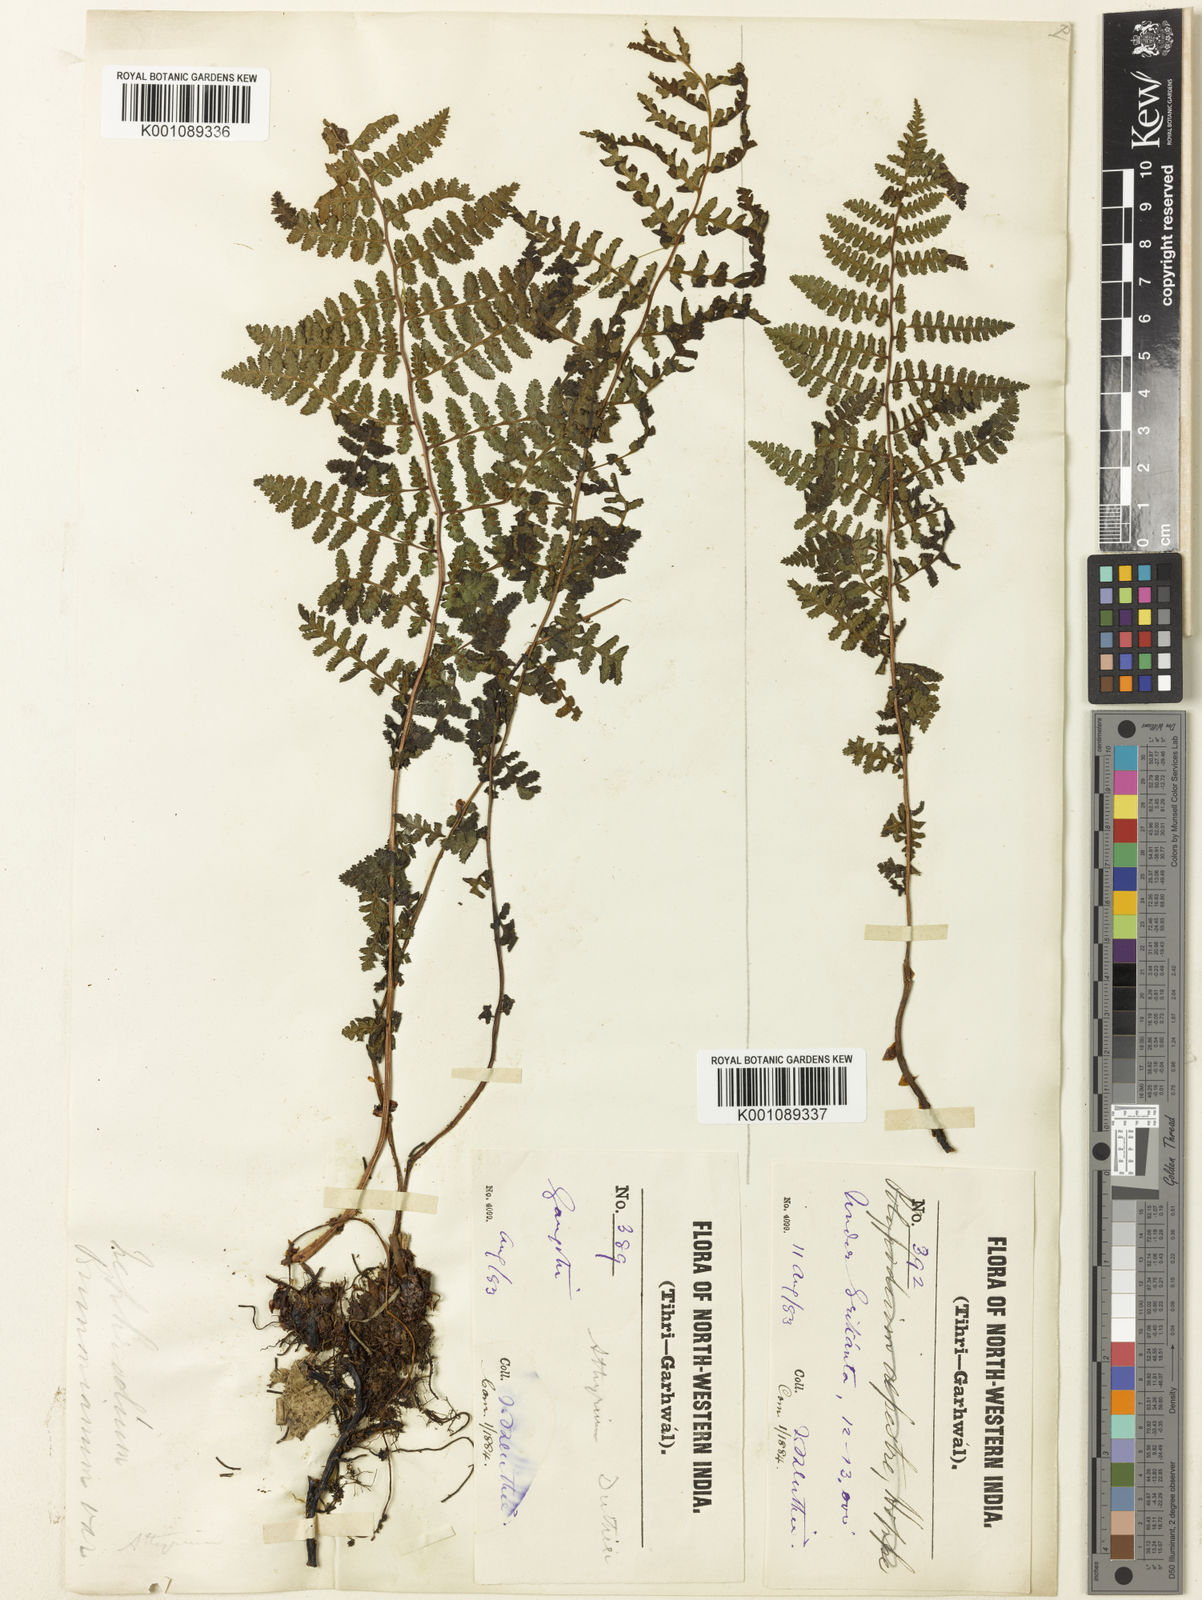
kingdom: Plantae
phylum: Tracheophyta
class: Polypodiopsida
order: Polypodiales
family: Athyriaceae
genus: Athyrium
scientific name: Athyrium davidii
